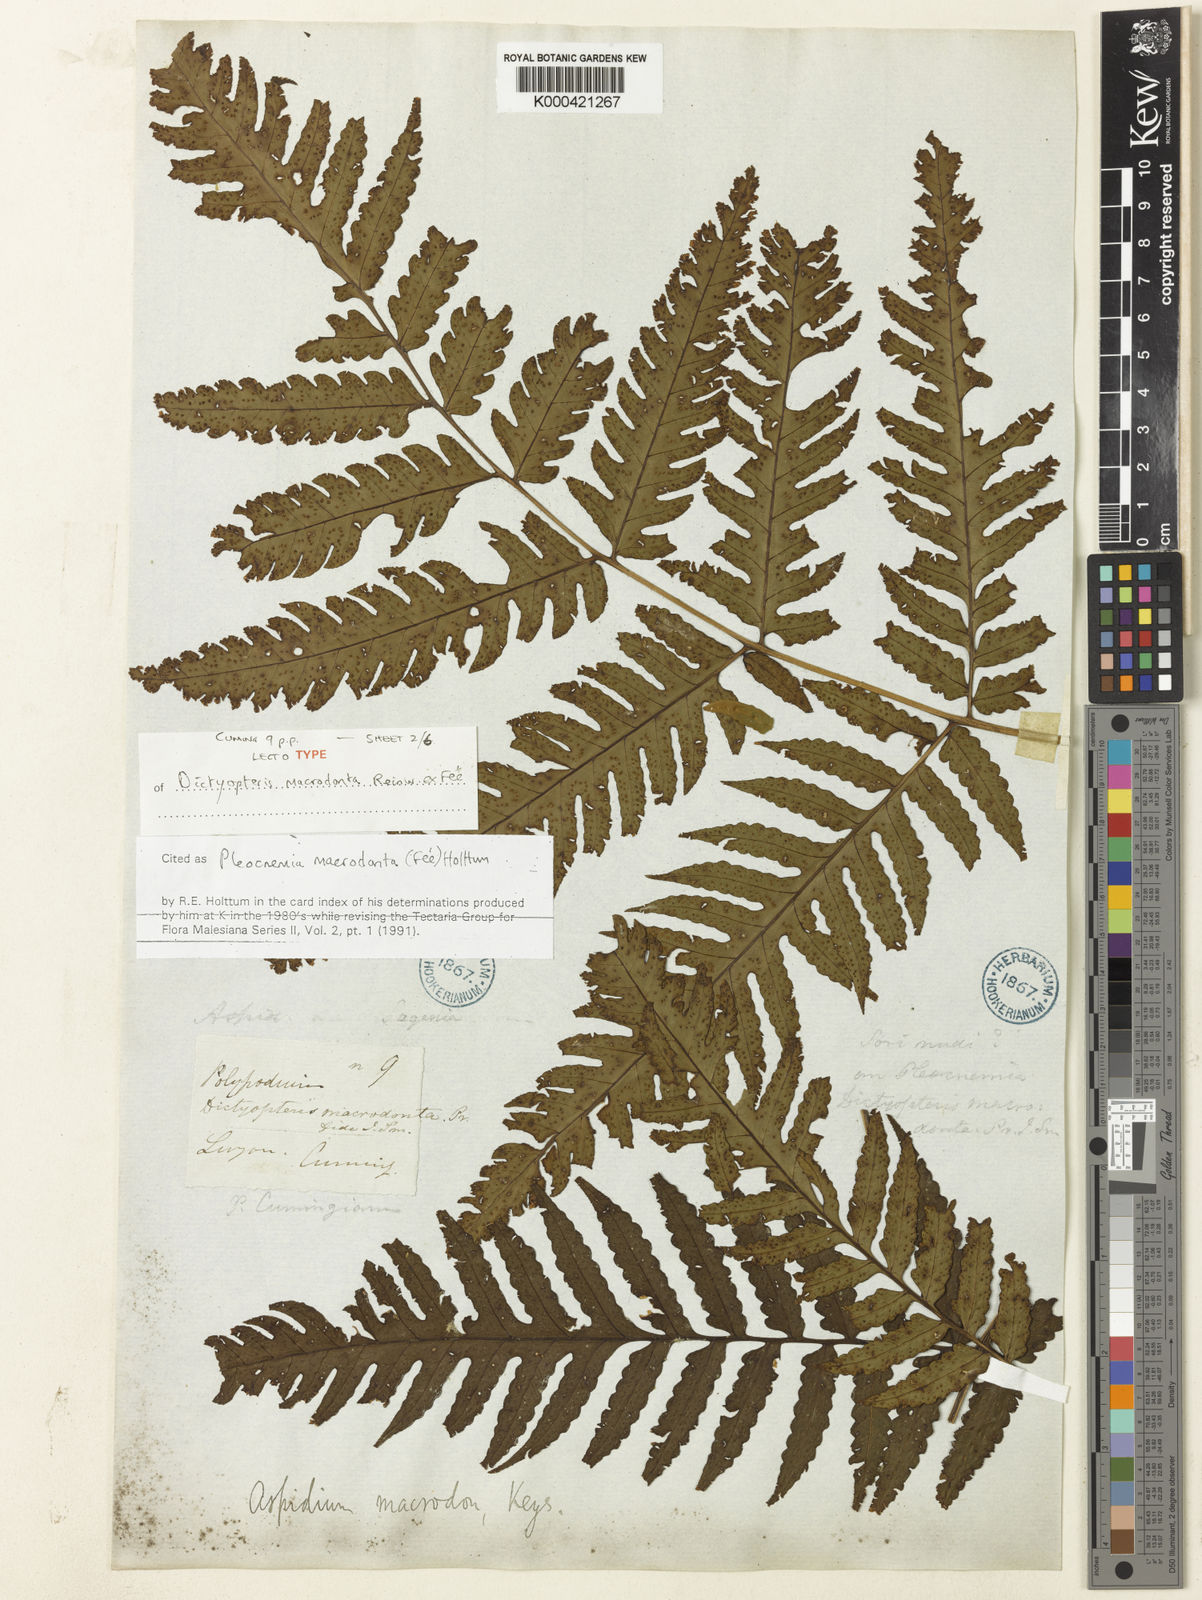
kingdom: Plantae
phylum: Tracheophyta
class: Polypodiopsida
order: Polypodiales
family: Dryopteridaceae
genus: Pleocnemia
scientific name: Pleocnemia
